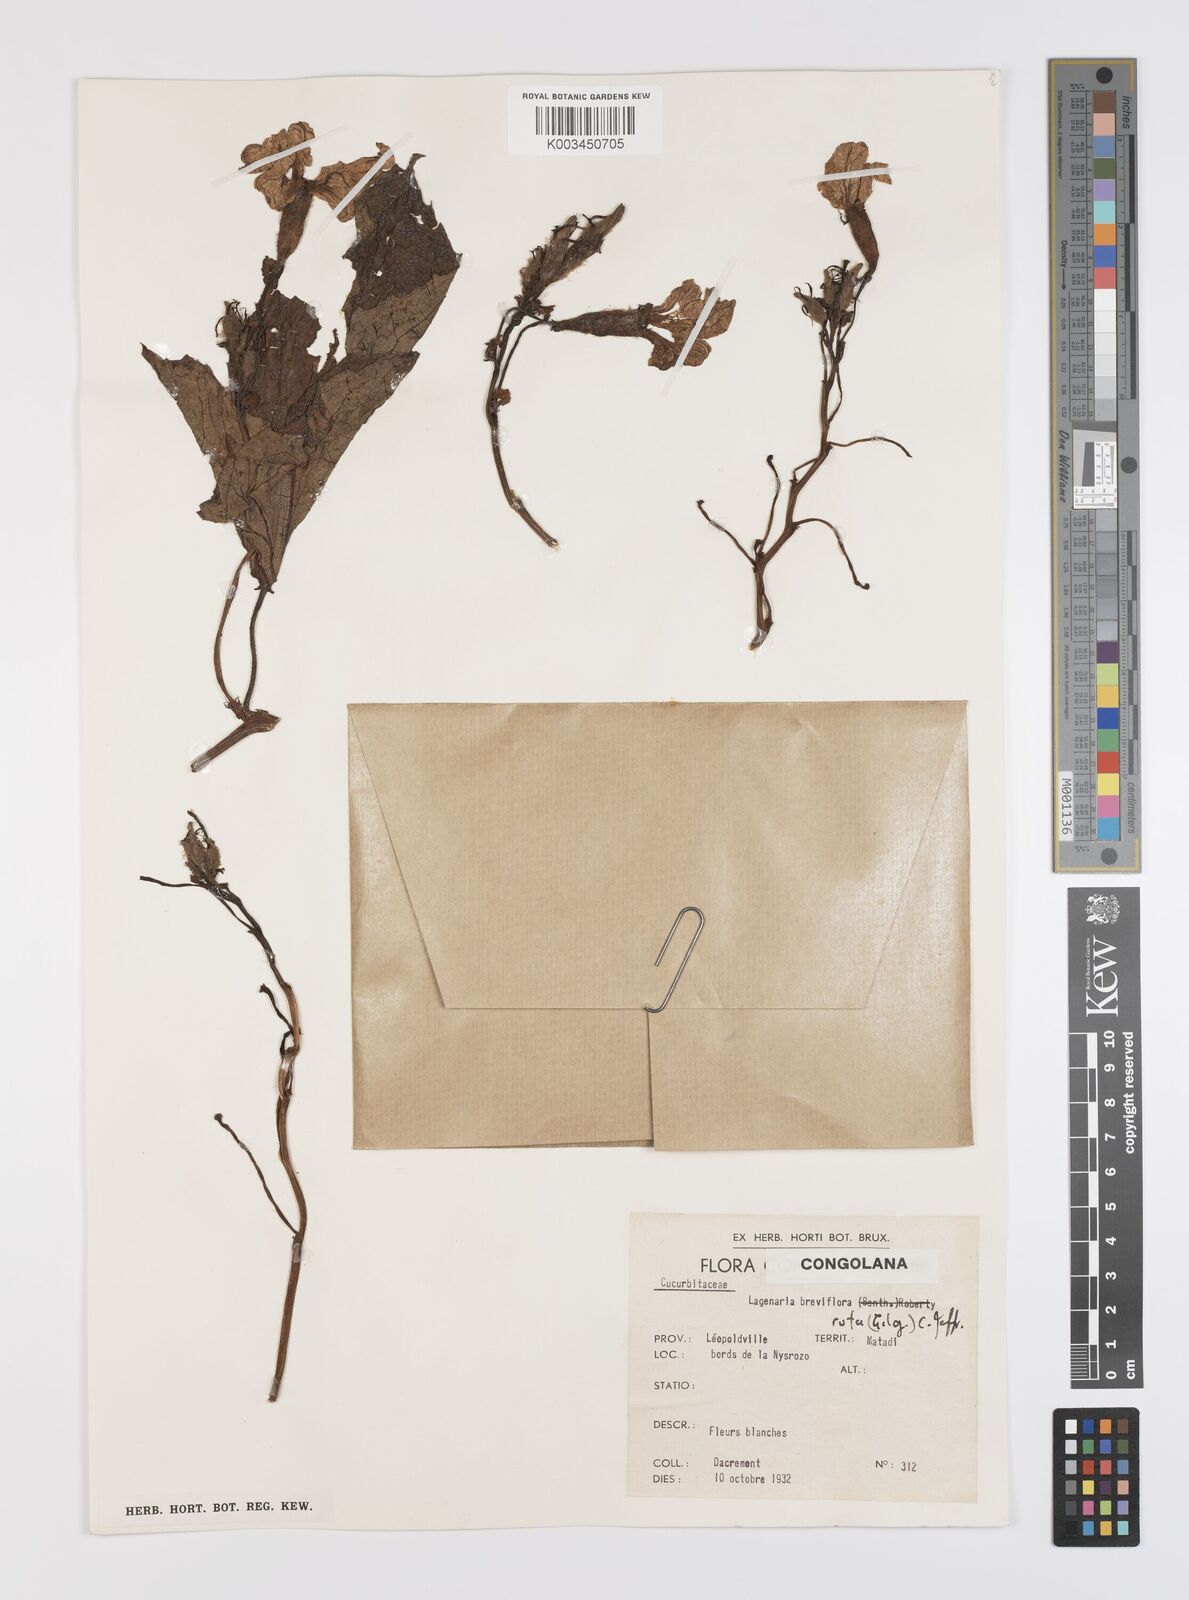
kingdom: Plantae
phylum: Tracheophyta
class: Magnoliopsida
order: Cucurbitales
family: Cucurbitaceae
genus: Lagenaria
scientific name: Lagenaria rufa
